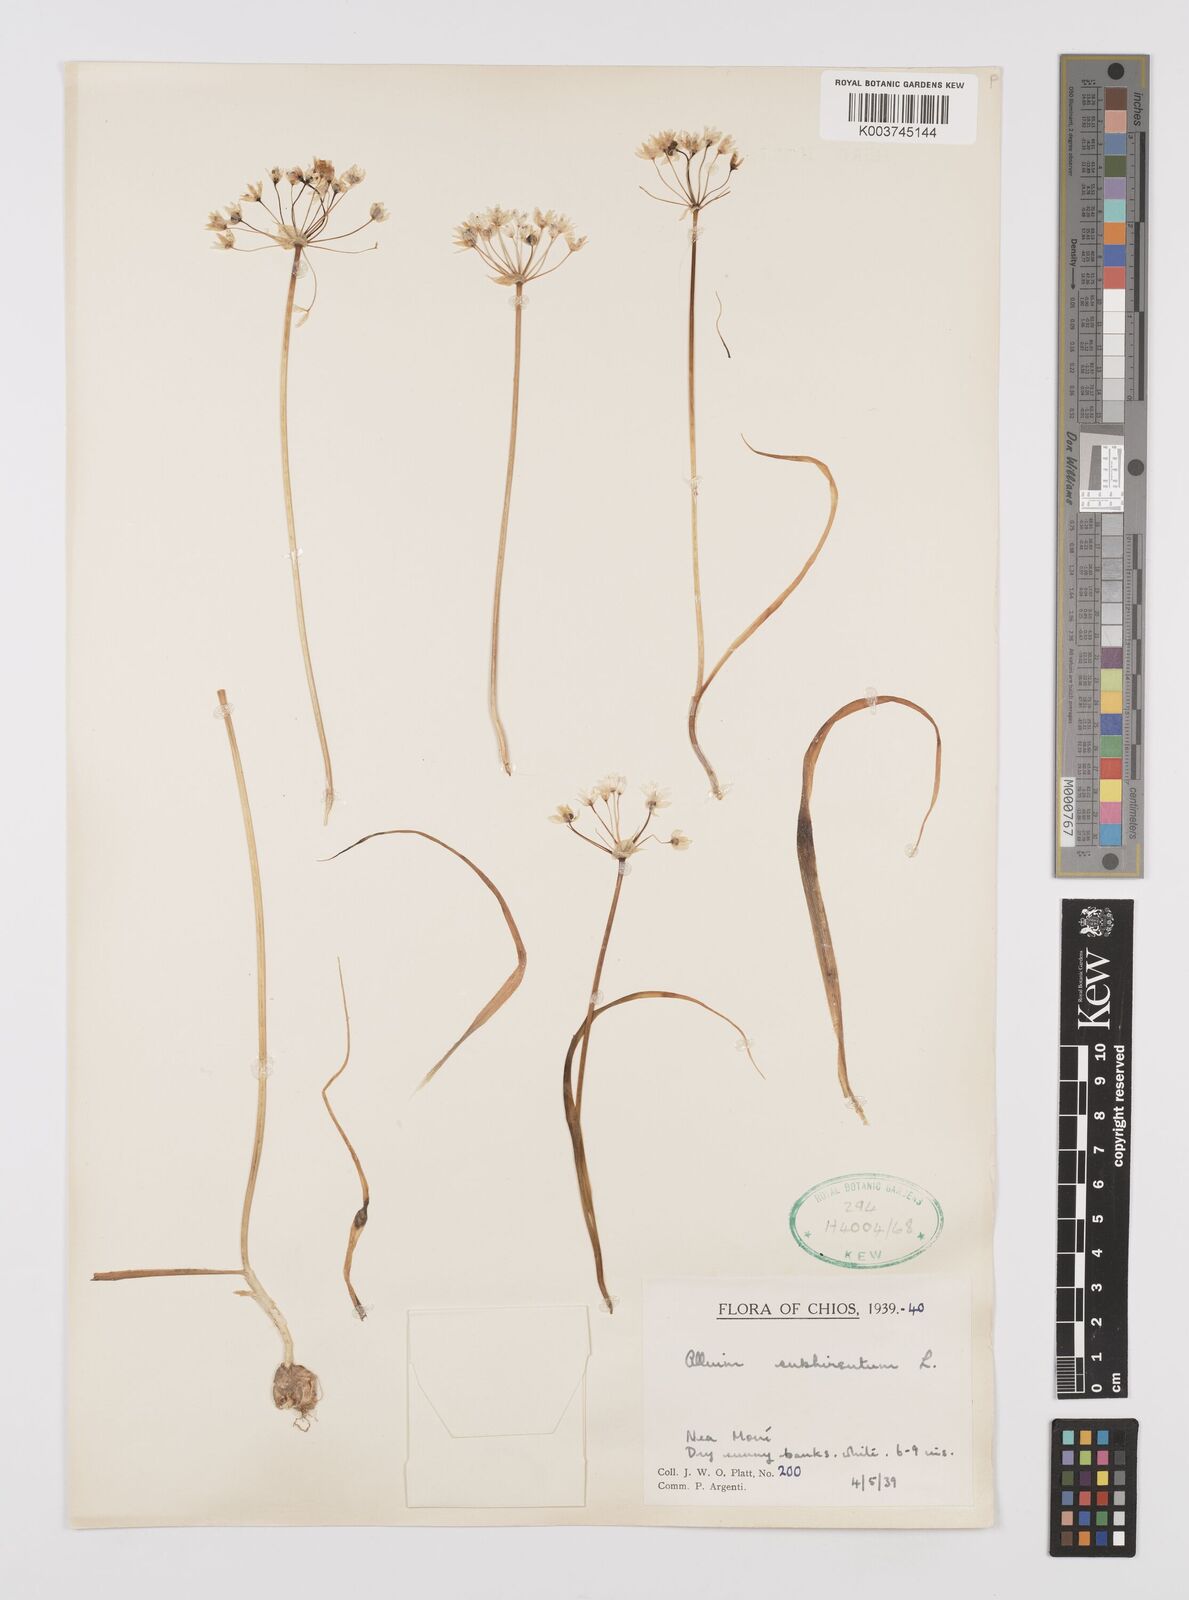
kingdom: Plantae
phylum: Tracheophyta
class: Liliopsida
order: Asparagales
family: Amaryllidaceae
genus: Allium
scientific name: Allium subhirsutum
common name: Hairy garlic
